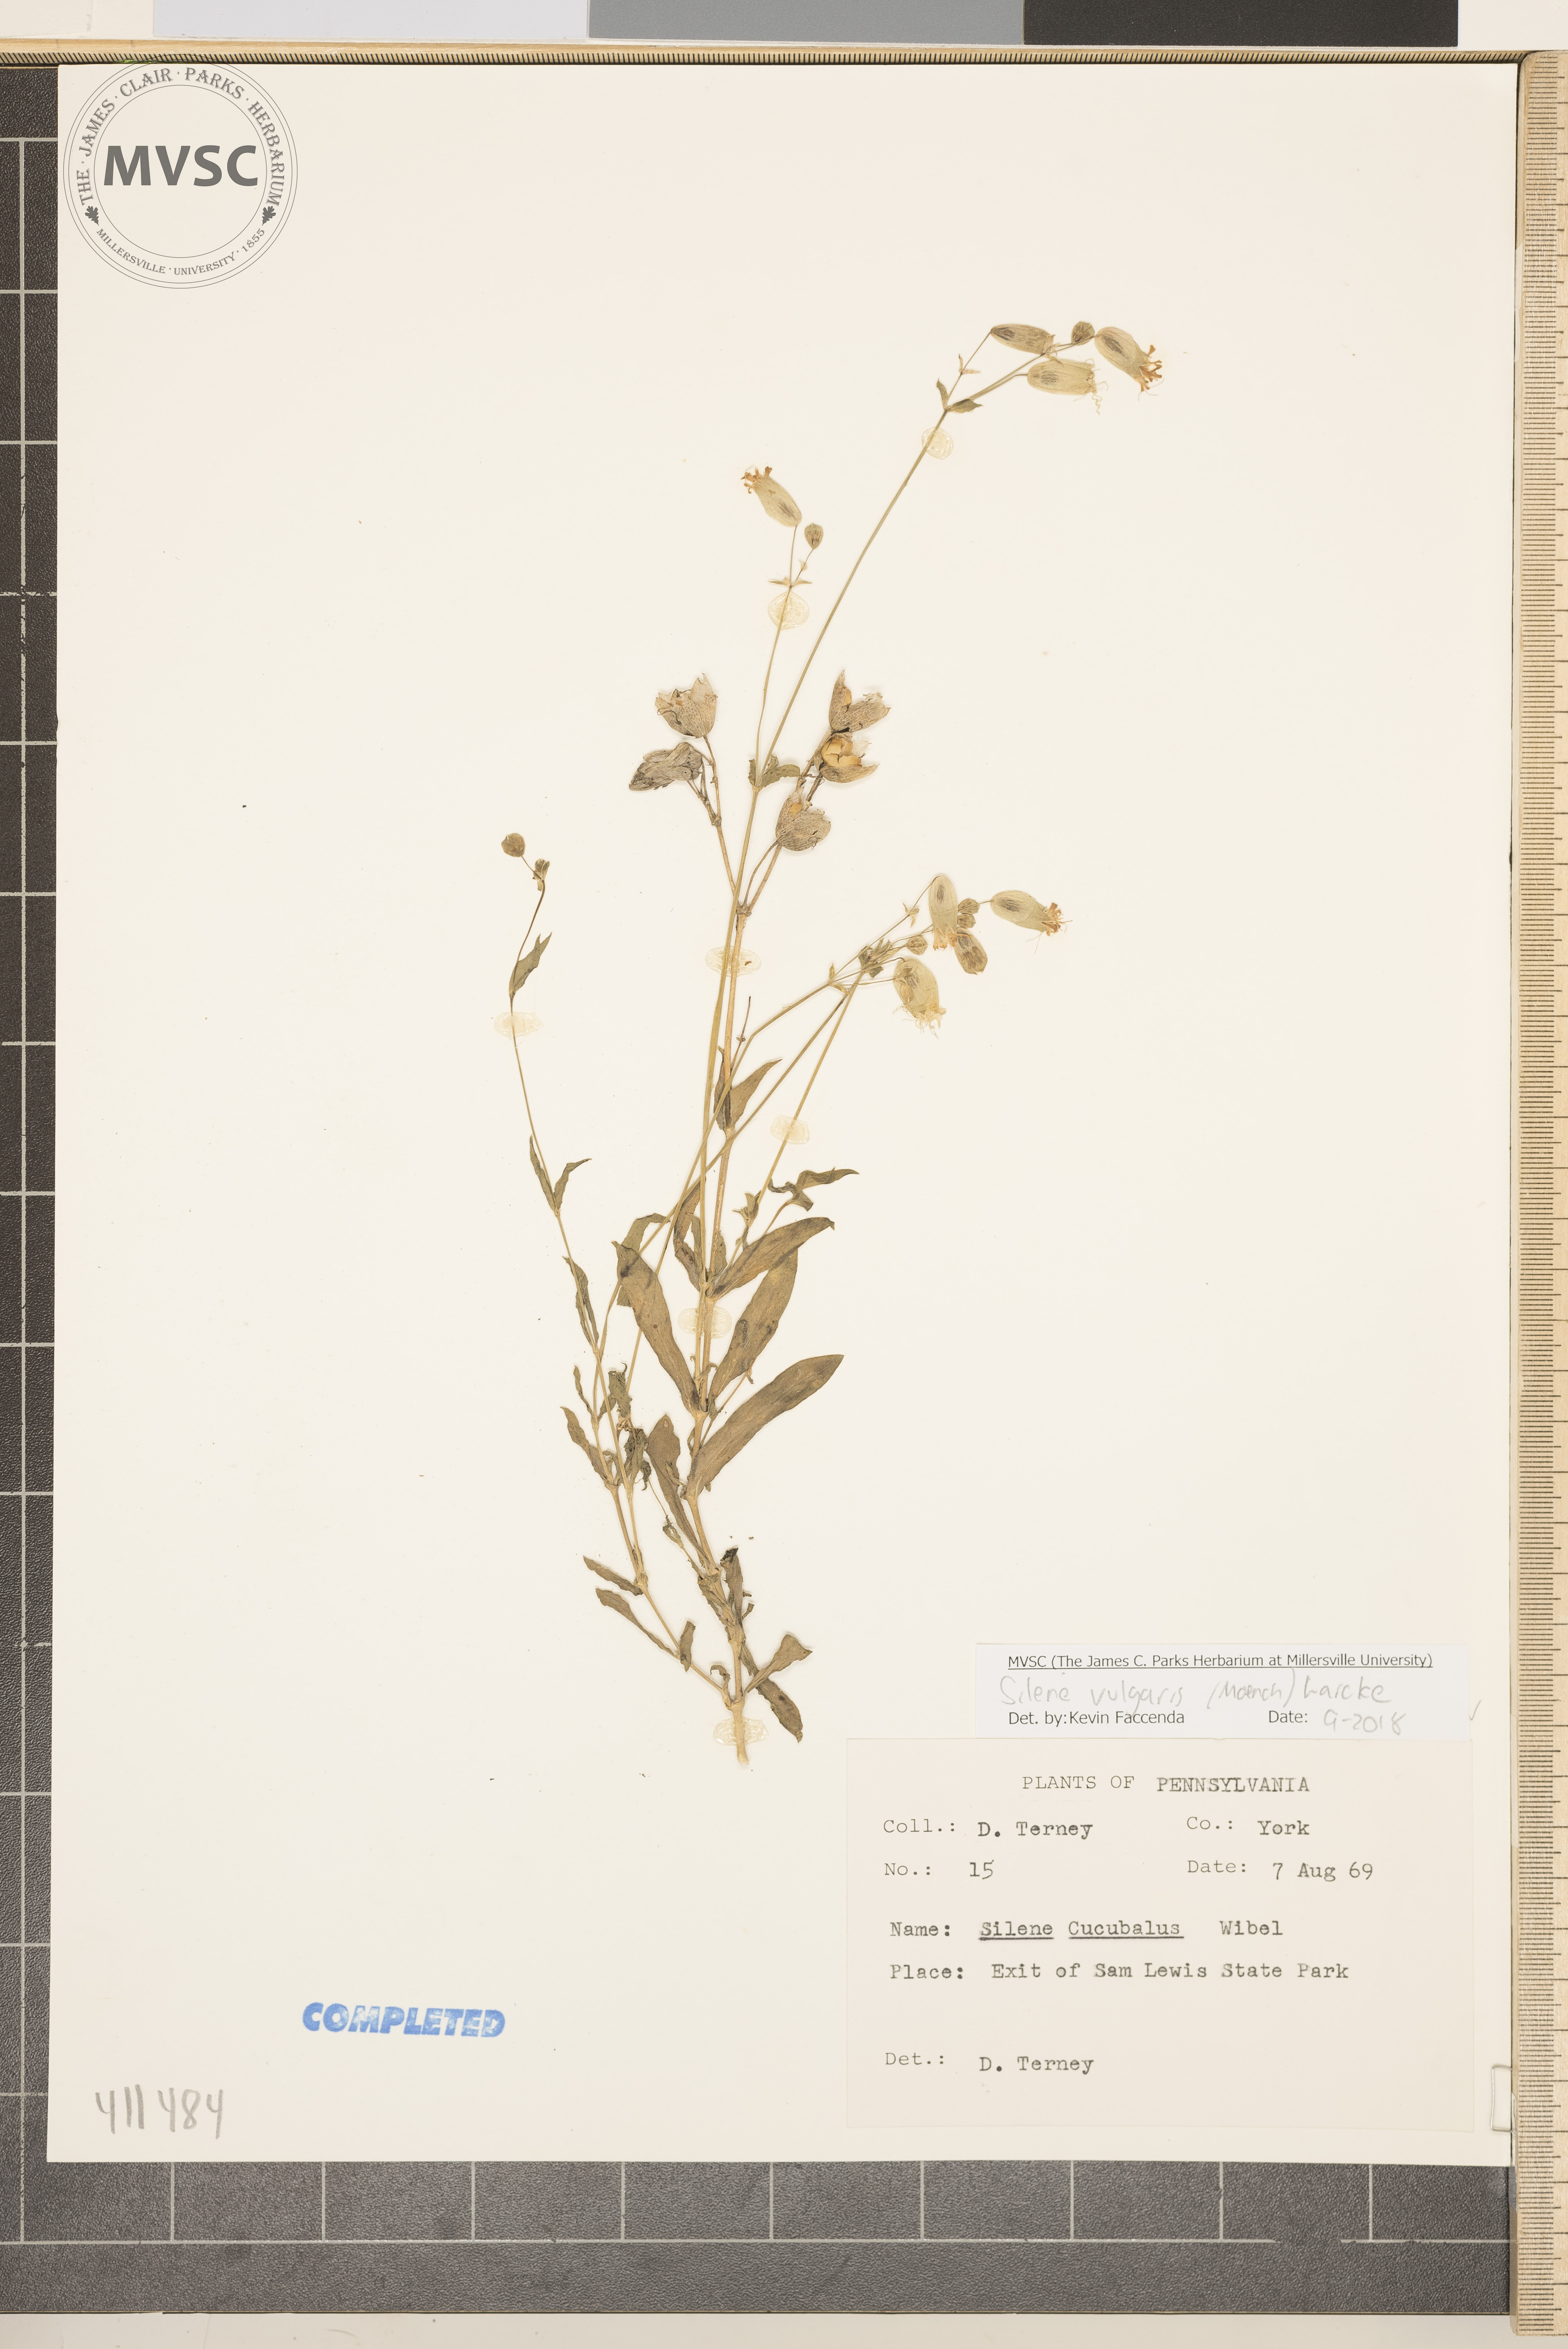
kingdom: Plantae
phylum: Tracheophyta
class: Magnoliopsida
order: Caryophyllales
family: Caryophyllaceae
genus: Silene
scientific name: Silene vulgaris
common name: Bladder campion
